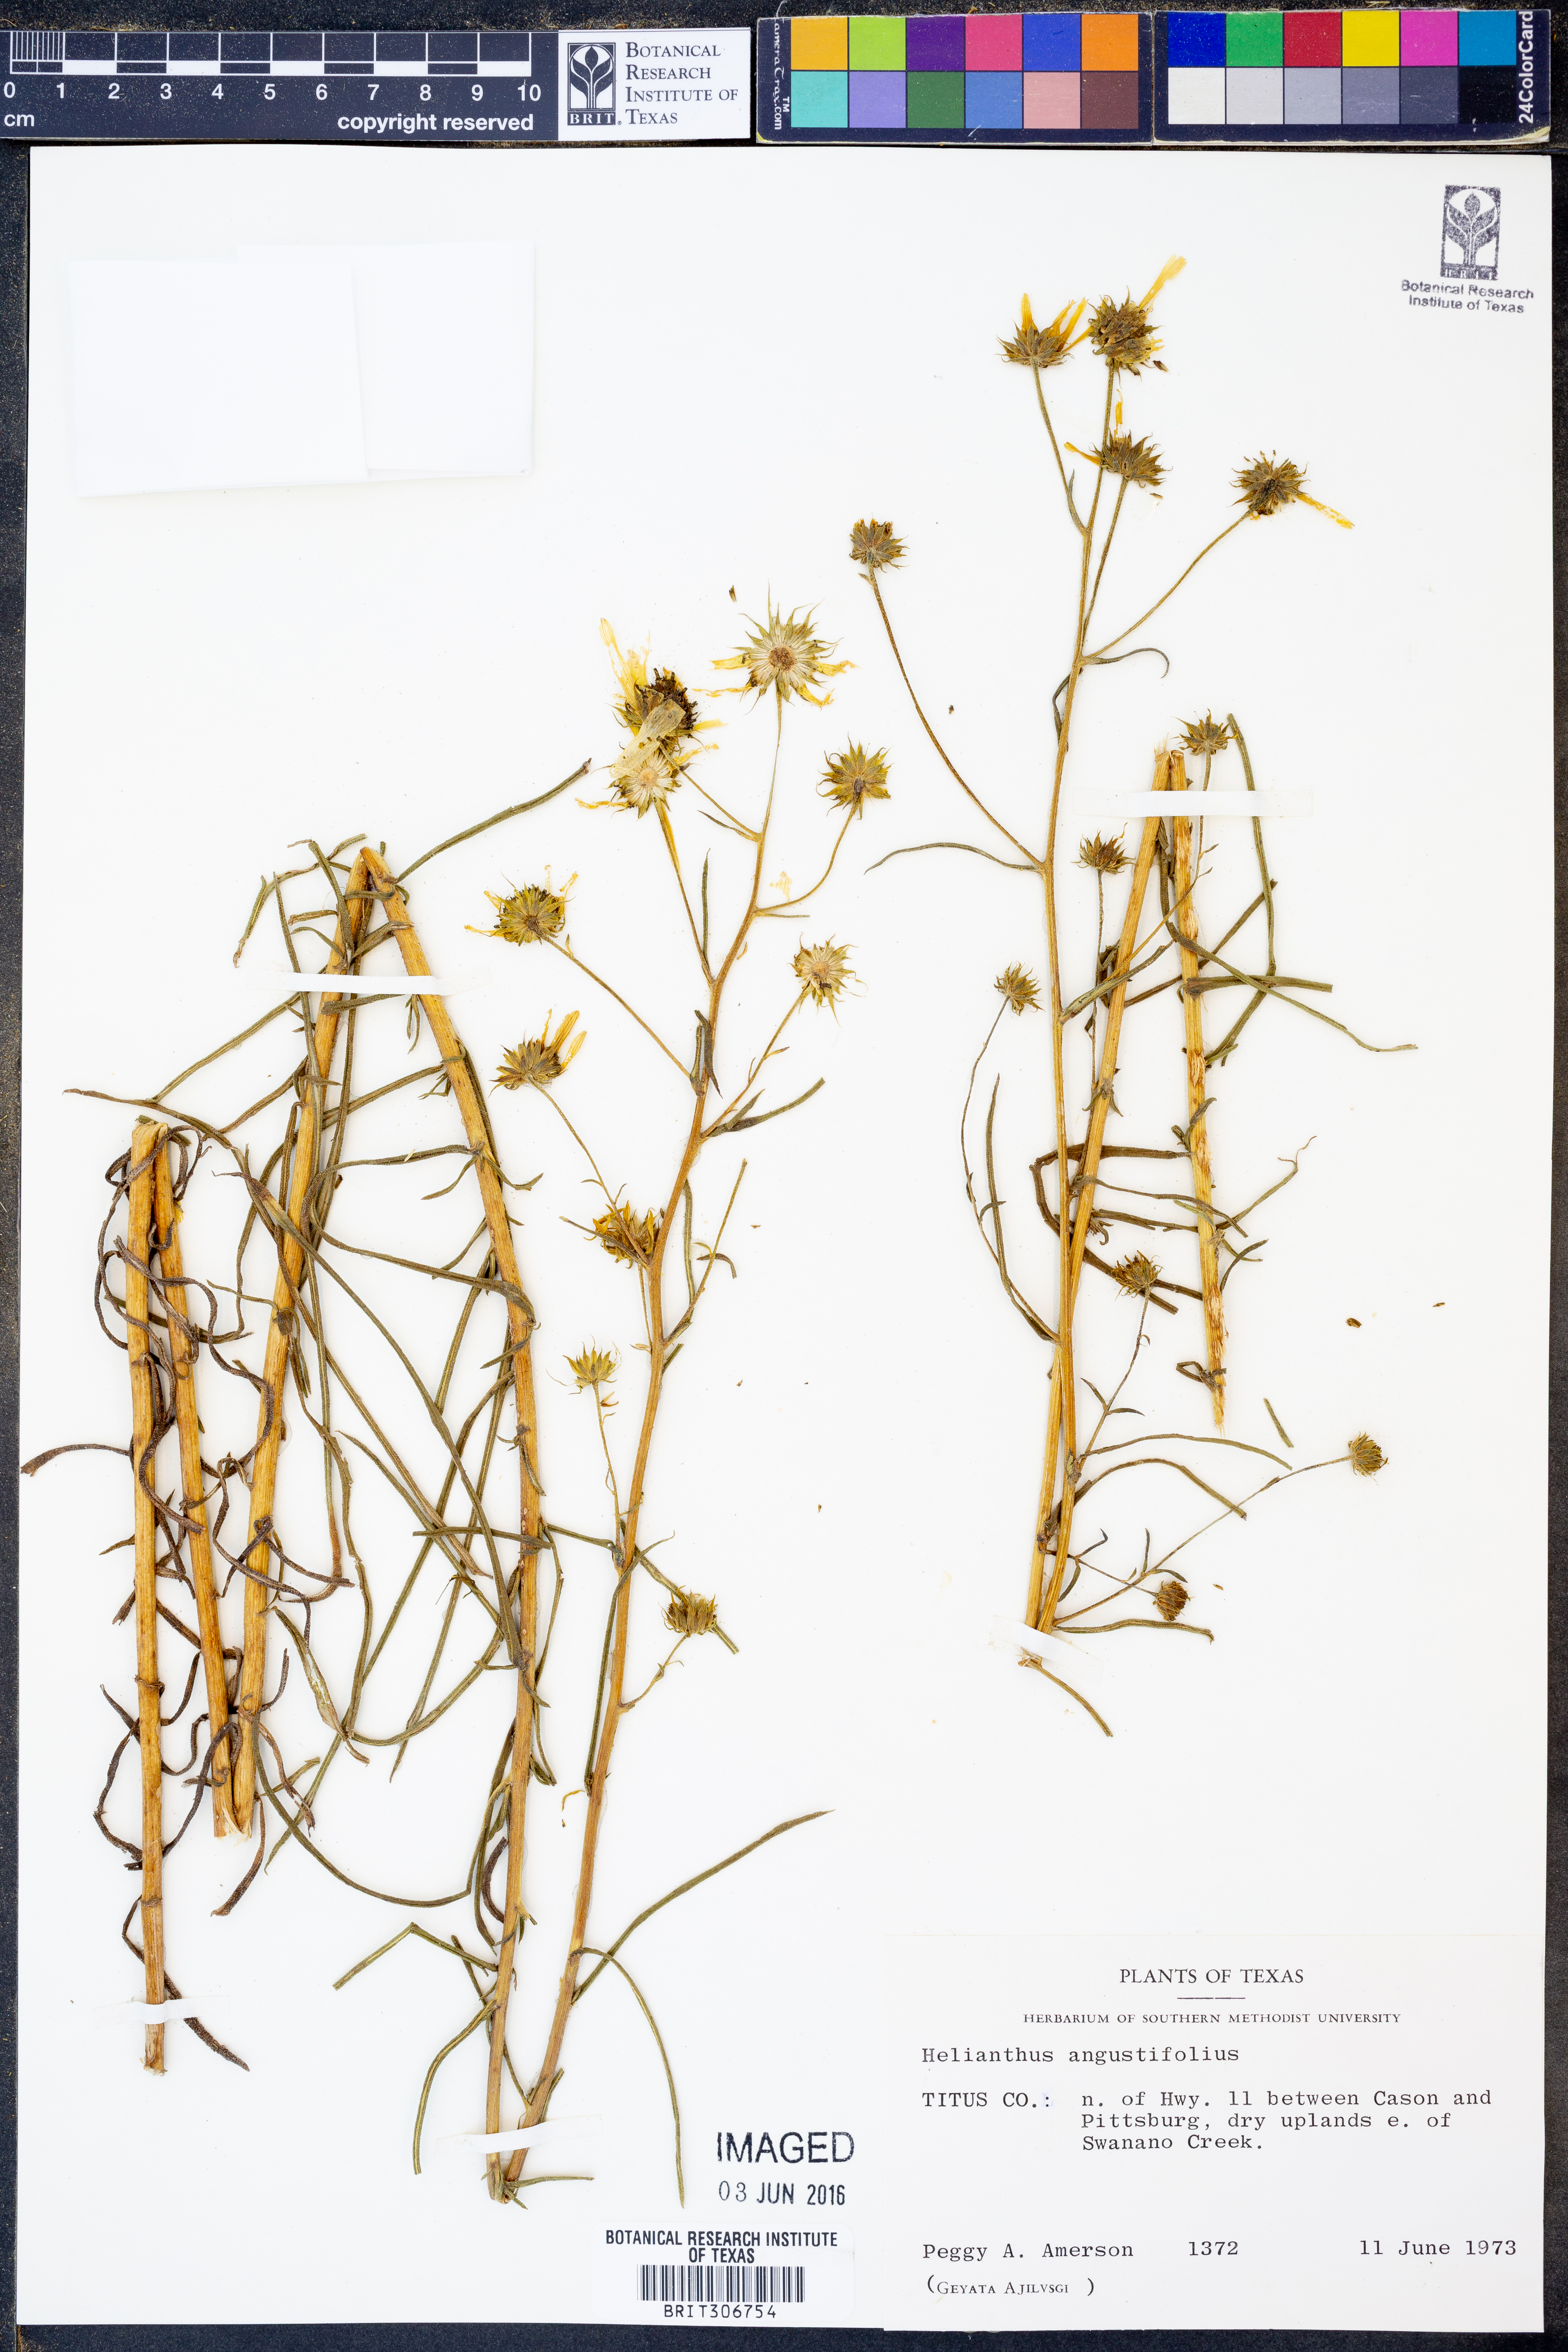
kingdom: Plantae
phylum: Tracheophyta
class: Magnoliopsida
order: Asterales
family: Asteraceae
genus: Helianthus
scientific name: Helianthus angustifolius
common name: Swamp sunflower
